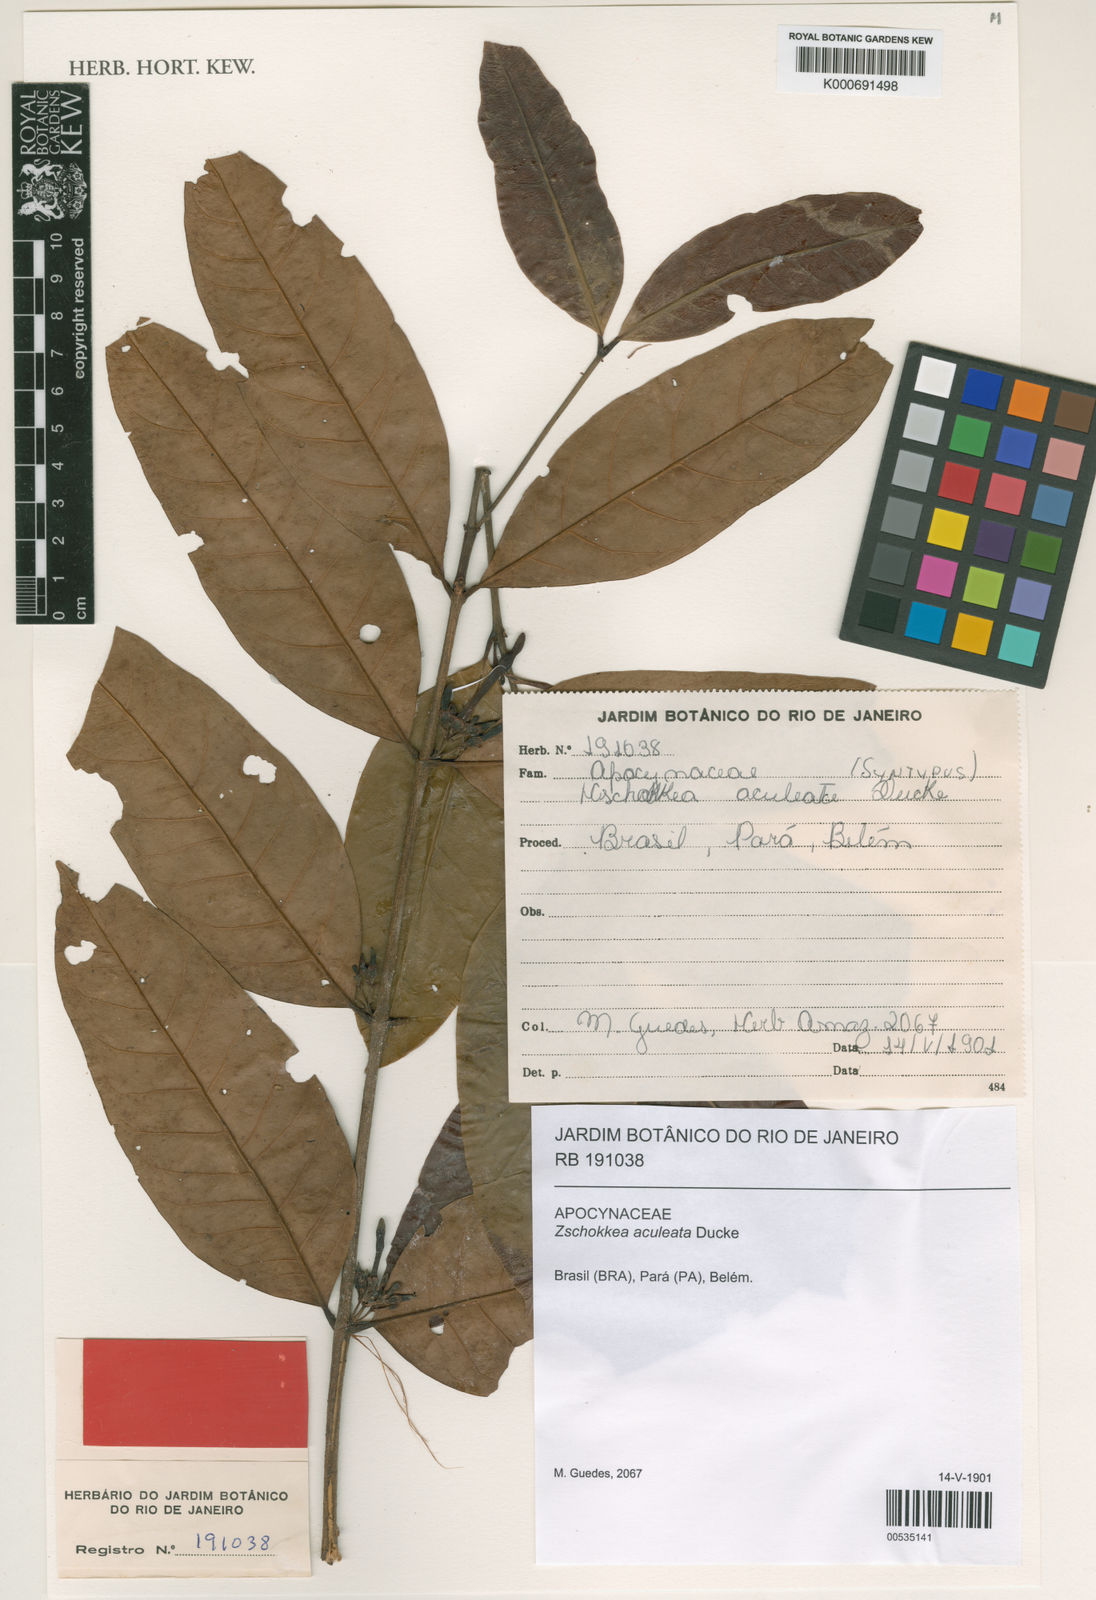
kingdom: Plantae
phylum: Tracheophyta
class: Magnoliopsida
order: Gentianales
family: Apocynaceae
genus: Lacmellea
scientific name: Lacmellea floribunda
